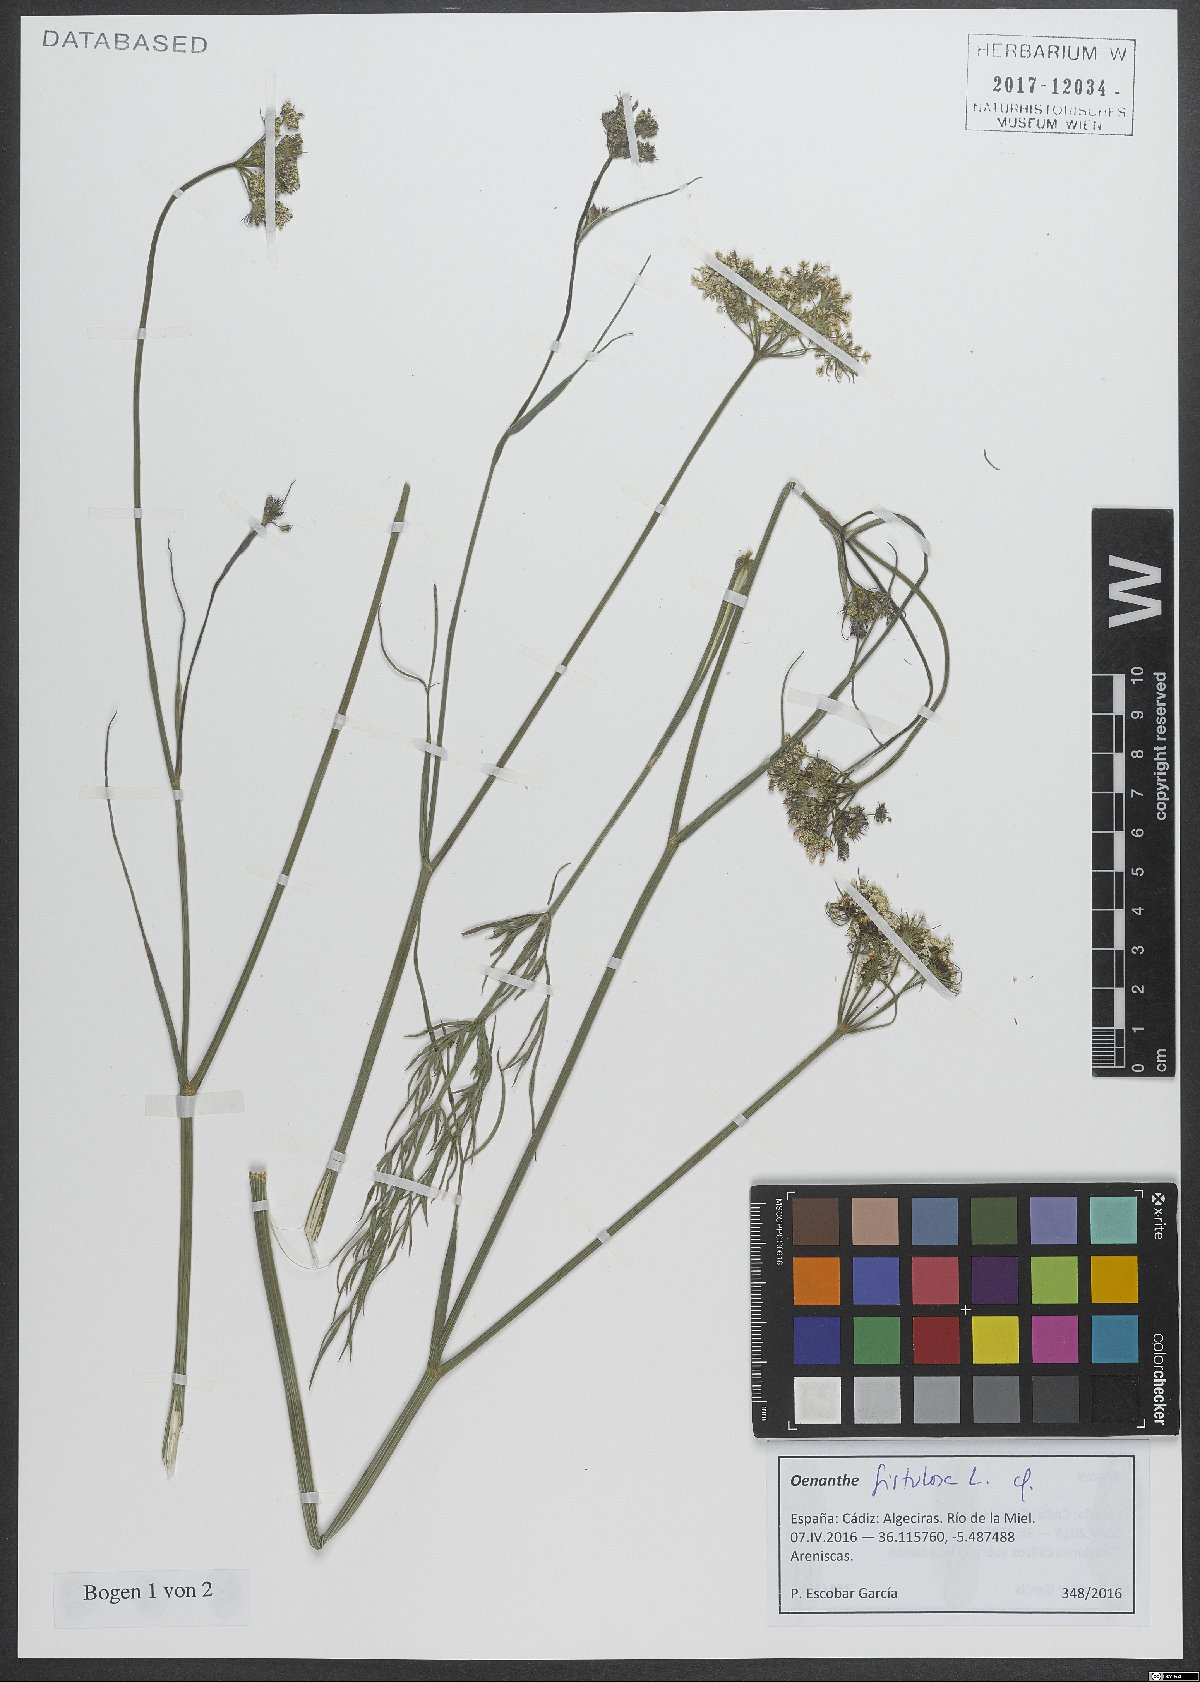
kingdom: Plantae
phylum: Tracheophyta
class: Magnoliopsida
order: Apiales
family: Apiaceae
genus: Oenanthe
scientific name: Oenanthe fistulosa
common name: Tubular water-dropwort
